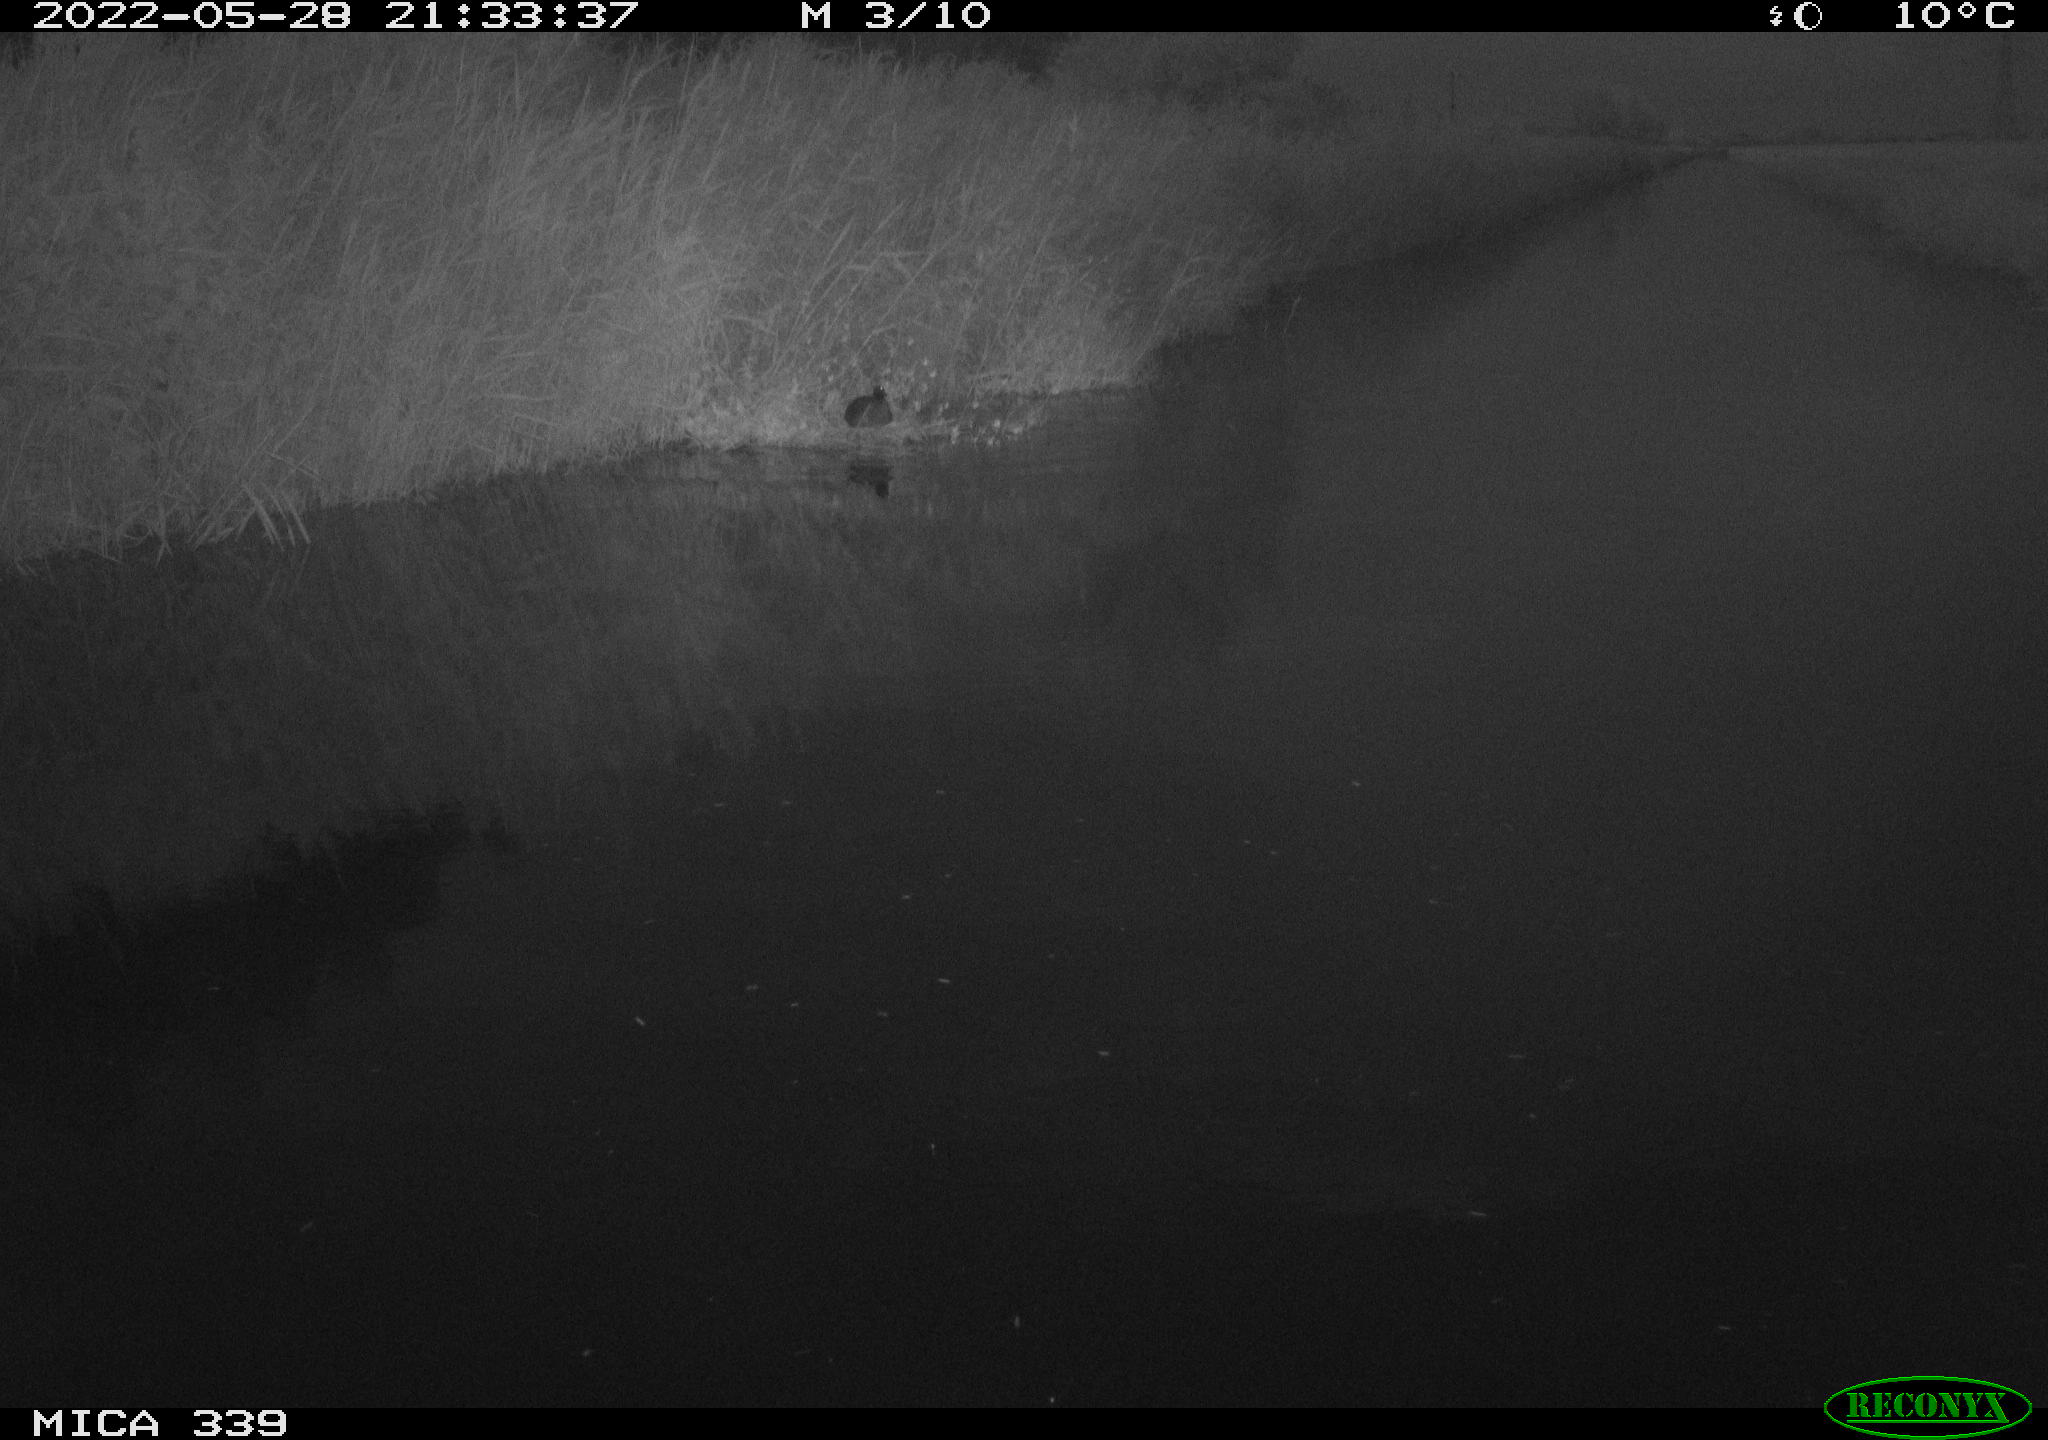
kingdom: Animalia
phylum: Chordata
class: Aves
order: Gruiformes
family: Rallidae
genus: Fulica
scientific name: Fulica atra
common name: Eurasian coot
